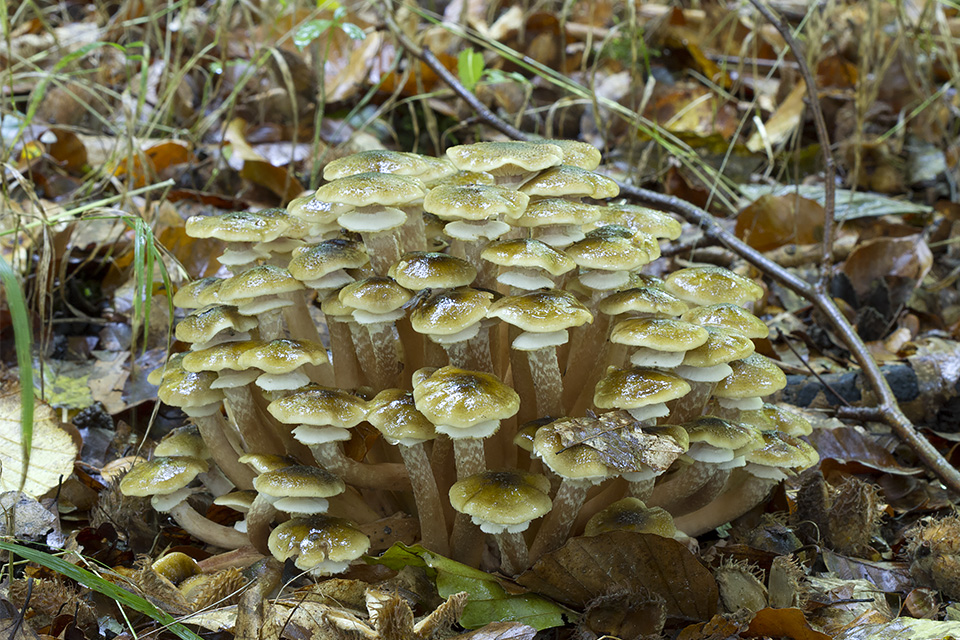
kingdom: Fungi
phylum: Basidiomycota
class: Agaricomycetes
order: Agaricales
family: Physalacriaceae
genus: Armillaria
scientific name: Armillaria mellea
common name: ægte honningsvamp
